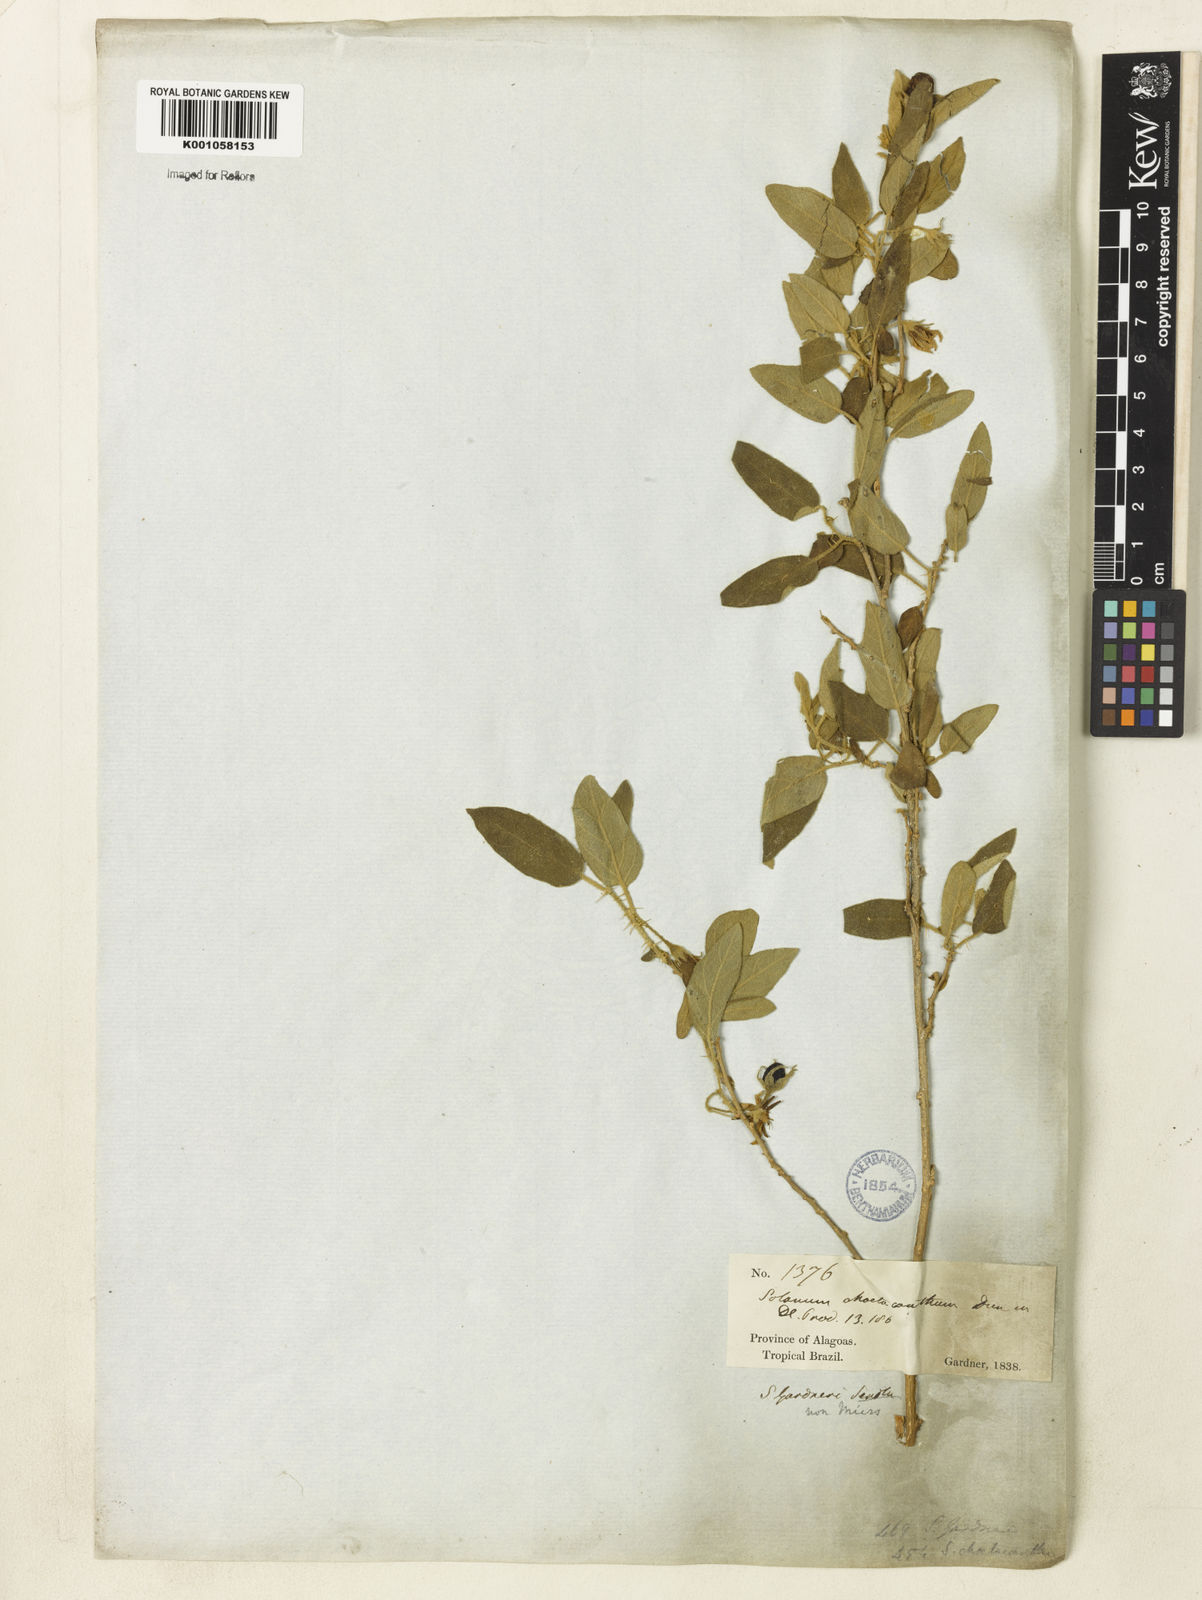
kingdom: Plantae
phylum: Tracheophyta
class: Magnoliopsida
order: Solanales
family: Solanaceae
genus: Solanum
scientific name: Solanum gardneri
